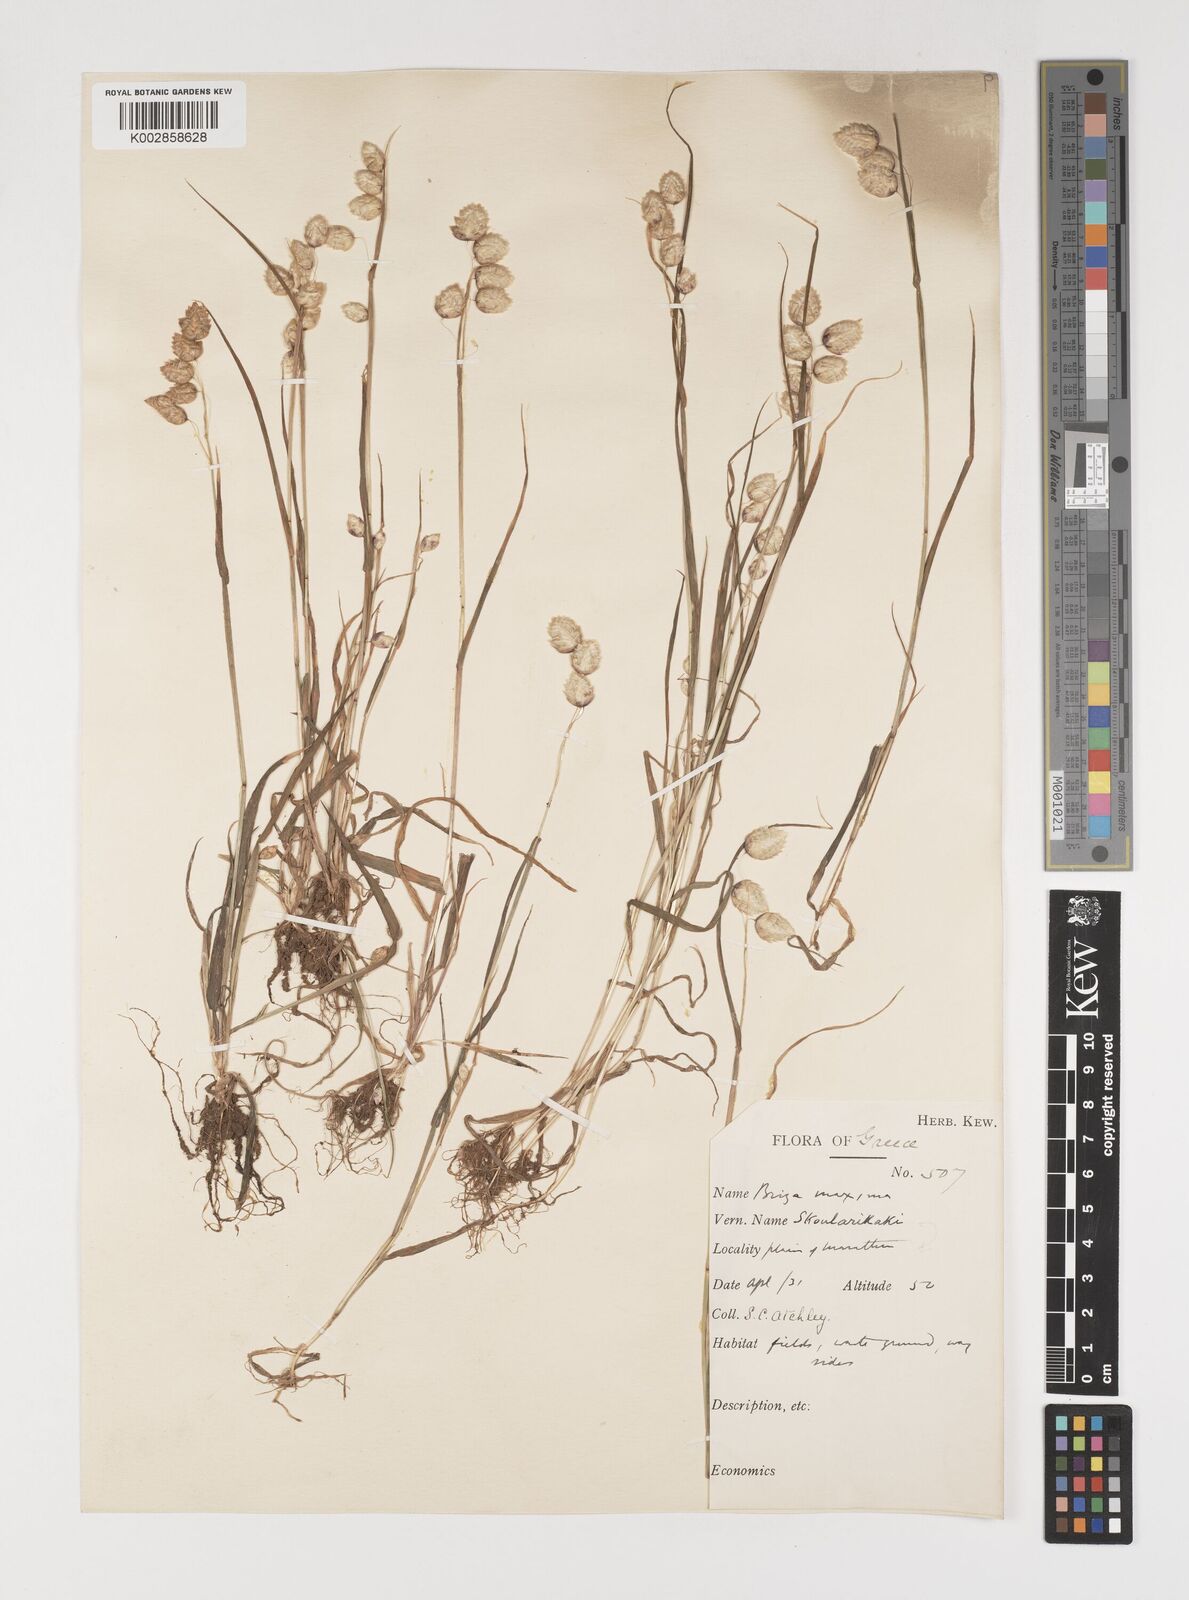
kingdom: Plantae
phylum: Tracheophyta
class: Liliopsida
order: Poales
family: Poaceae
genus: Briza
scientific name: Briza maxima
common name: Big quakinggrass
